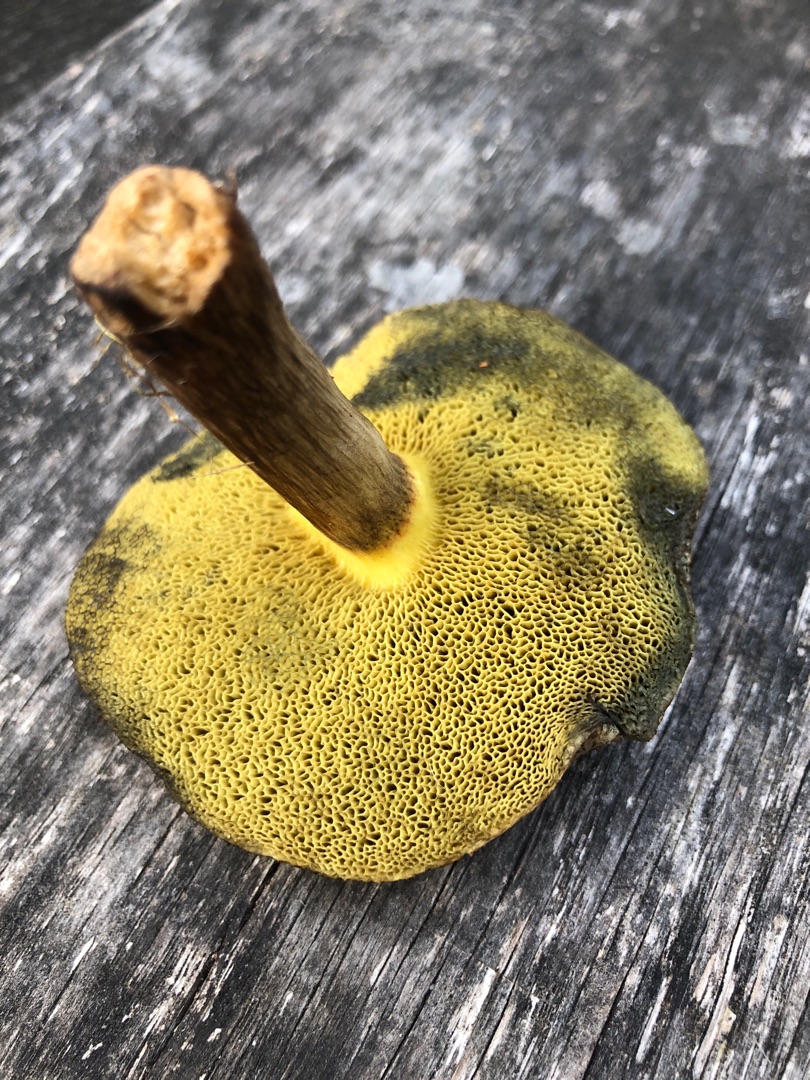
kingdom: Fungi
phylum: Basidiomycota
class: Agaricomycetes
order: Boletales
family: Boletaceae
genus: Xerocomellus
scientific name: Xerocomellus porosporus
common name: Hvidsprukken rørhat
